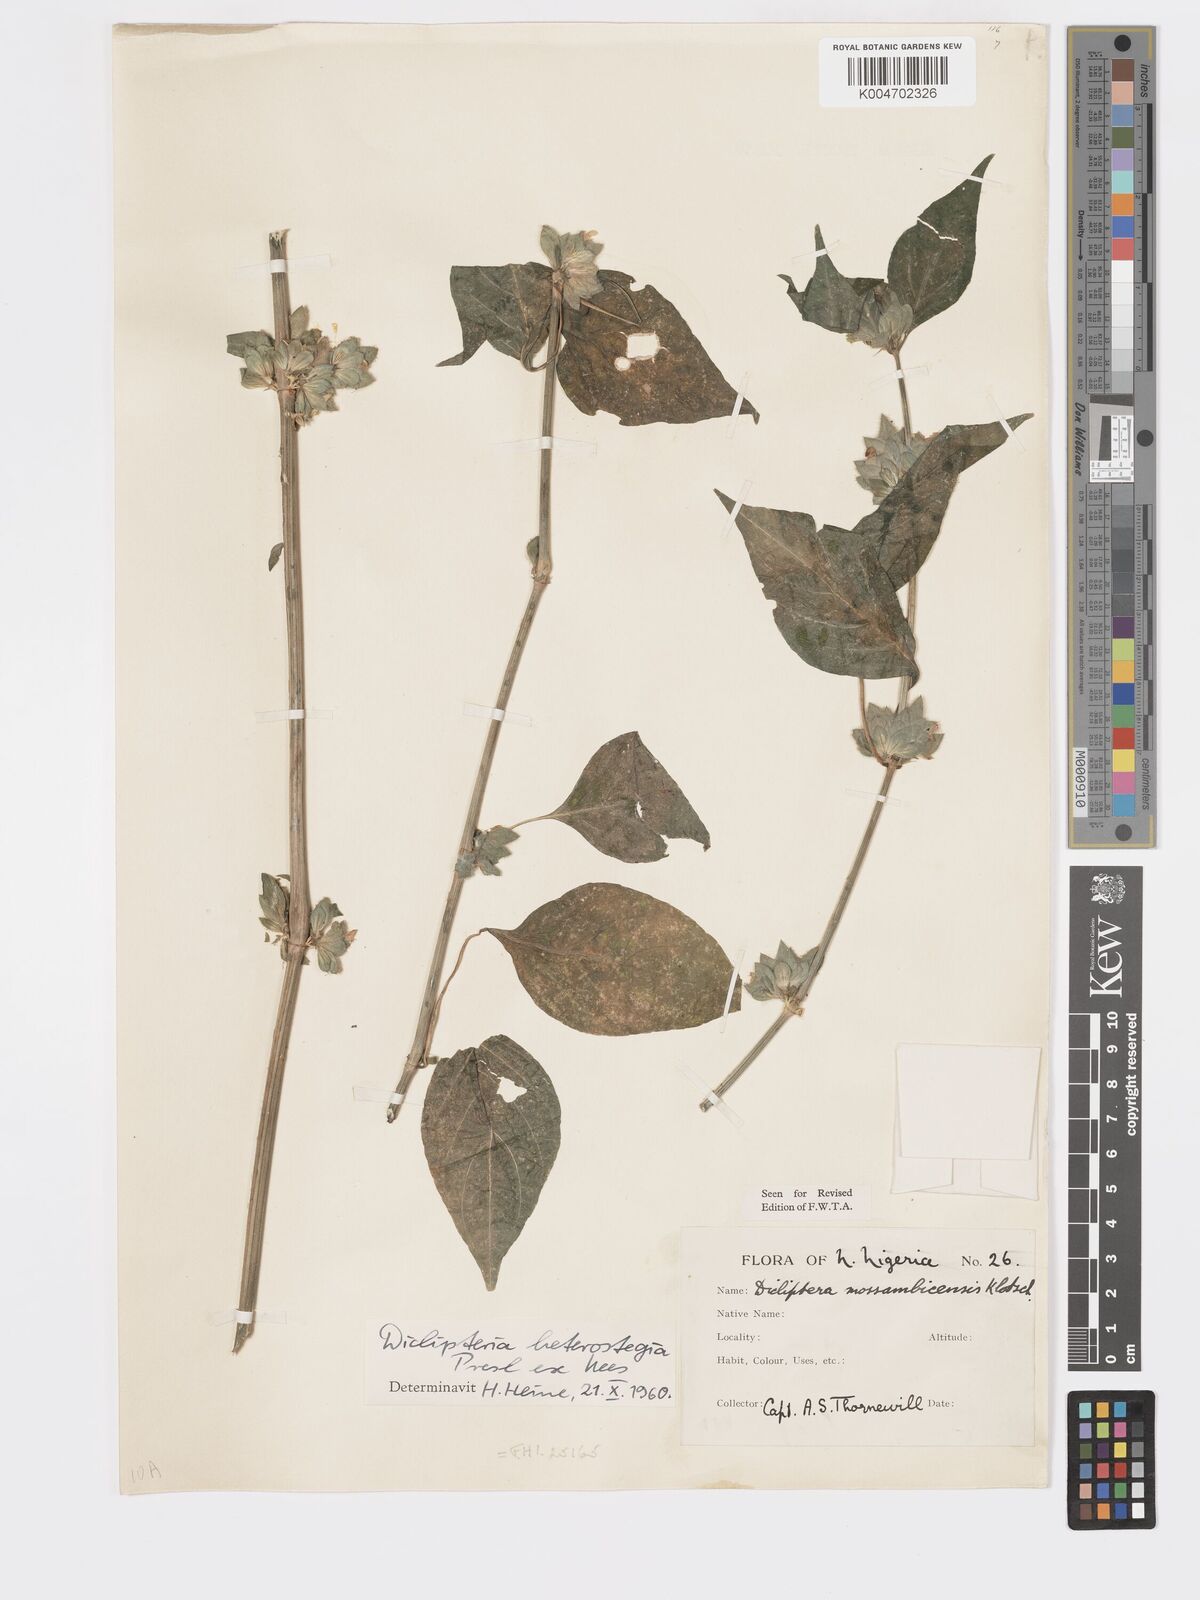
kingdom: Plantae
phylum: Tracheophyta
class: Magnoliopsida
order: Lamiales
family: Acanthaceae
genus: Dicliptera
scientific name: Dicliptera
